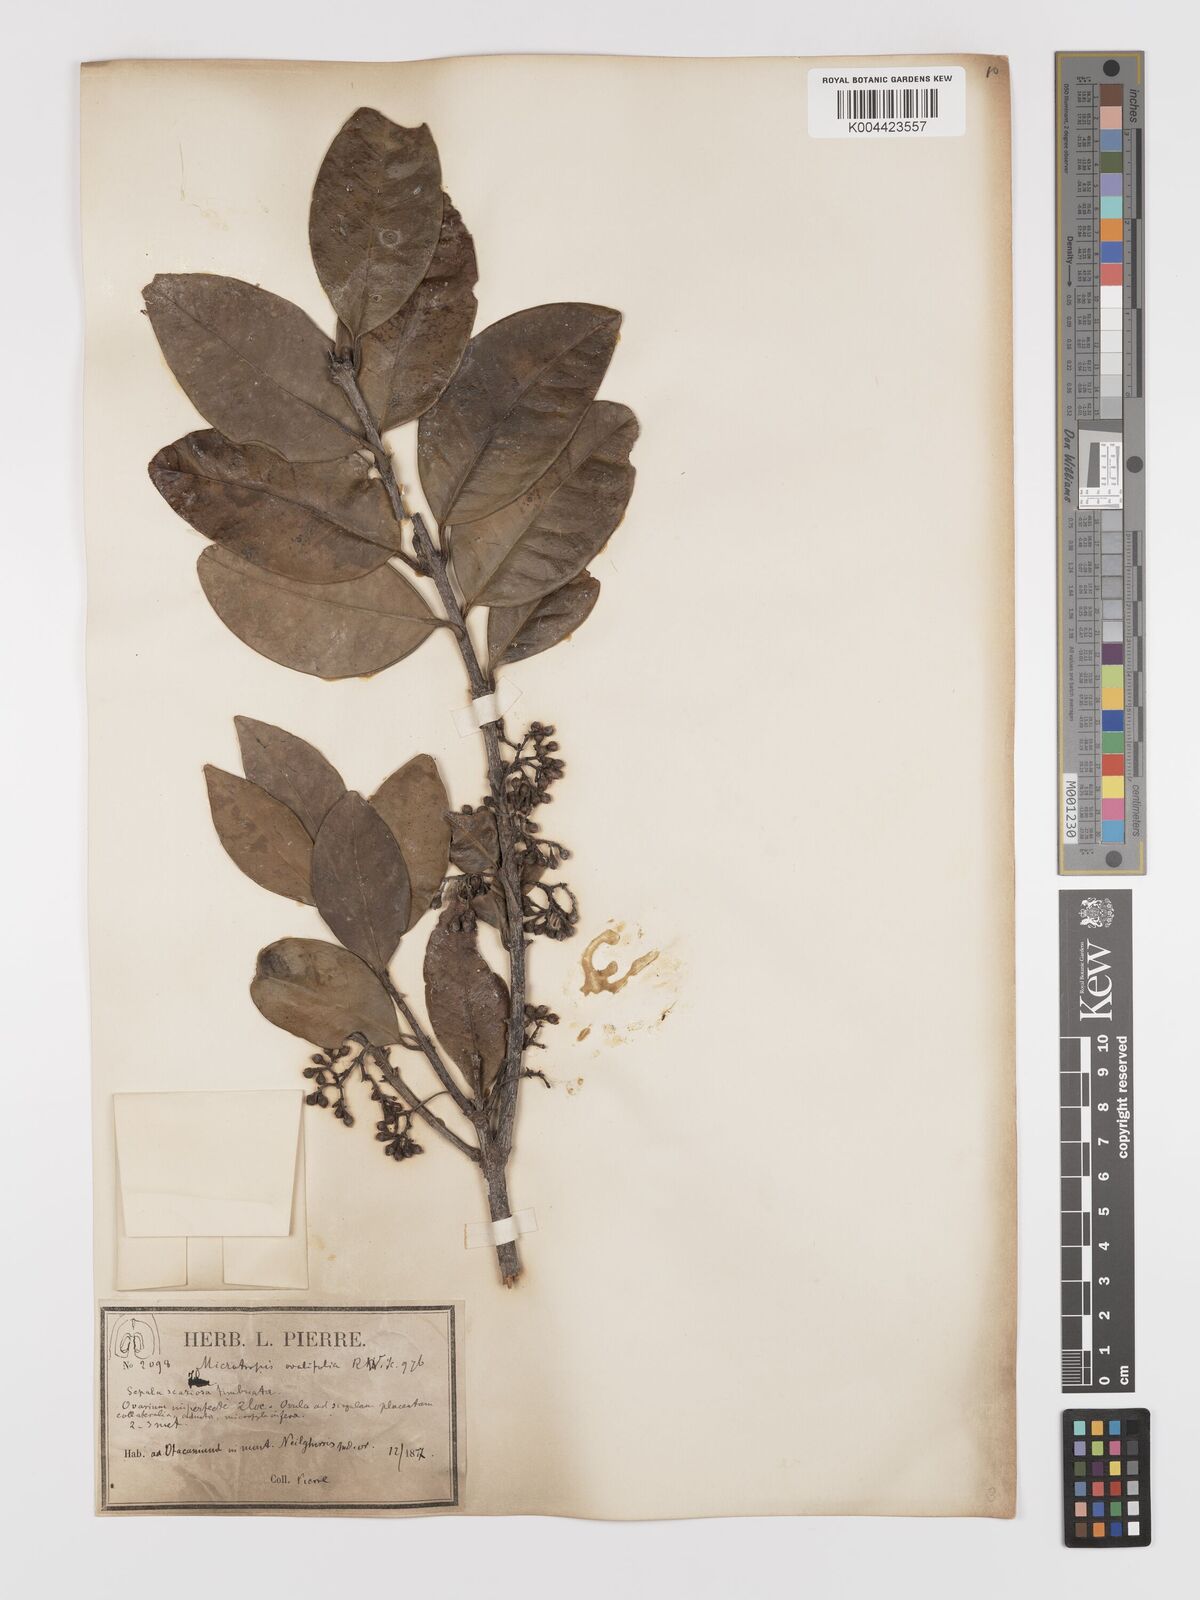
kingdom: Plantae
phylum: Tracheophyta
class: Magnoliopsida
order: Celastrales
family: Celastraceae
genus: Microtropis
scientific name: Microtropis microcarpa
